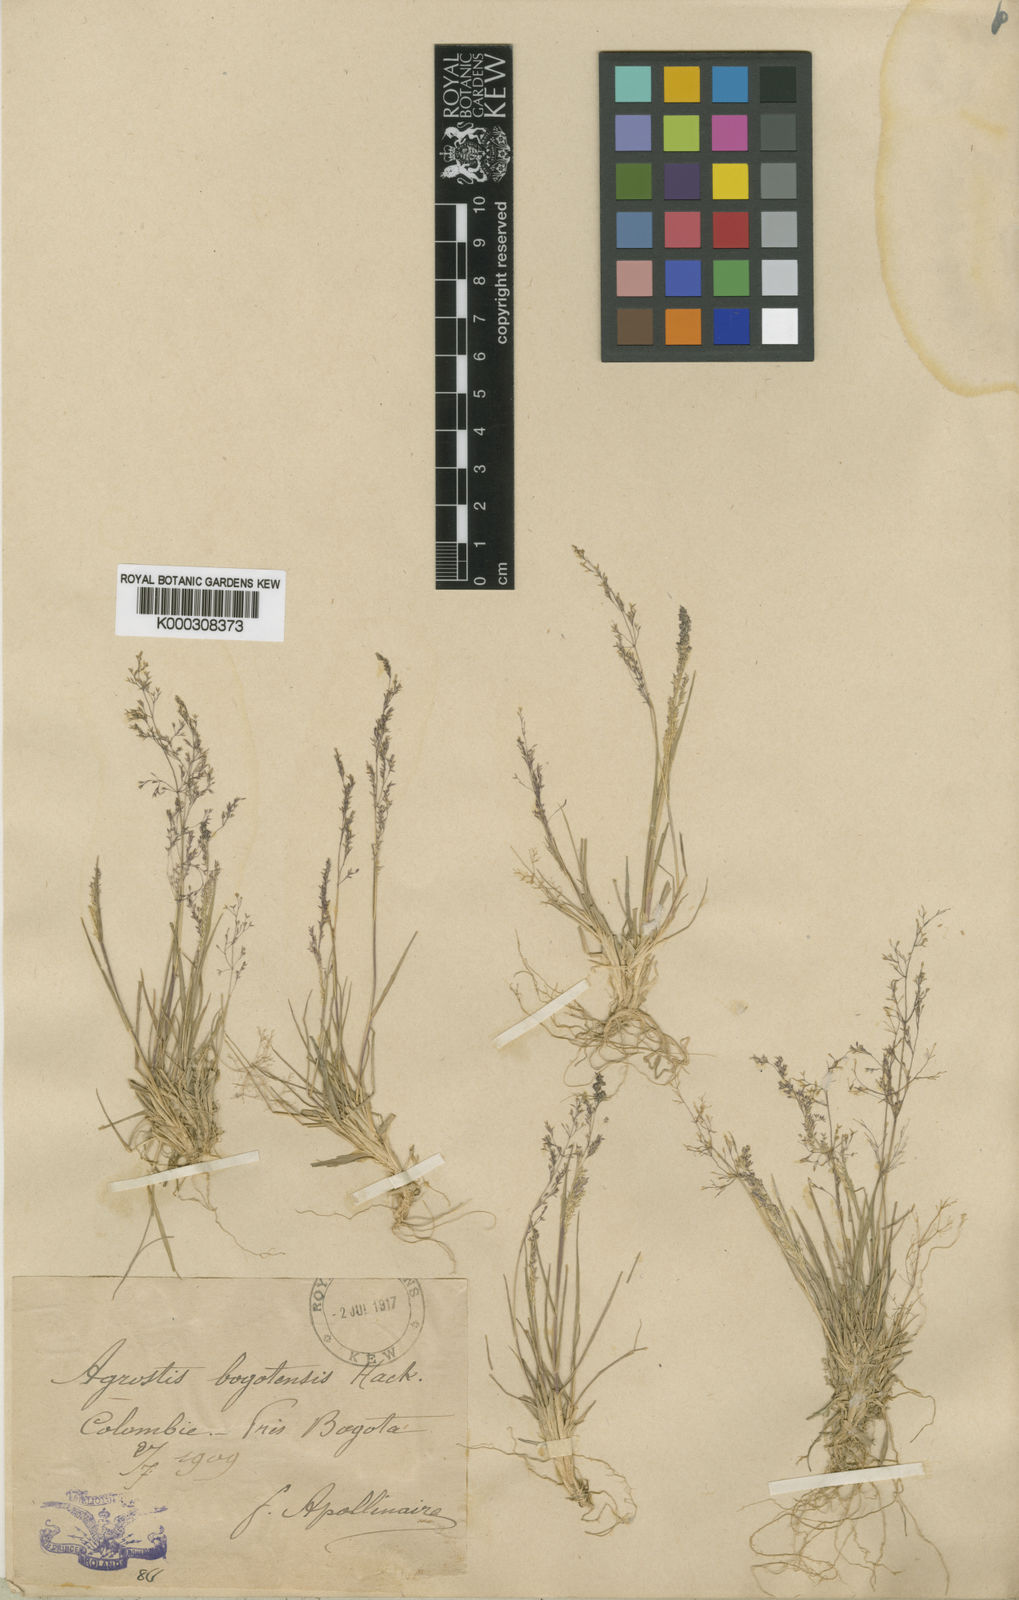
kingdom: Plantae
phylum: Tracheophyta
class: Liliopsida
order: Poales
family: Poaceae
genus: Agrostis
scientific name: Agrostis
